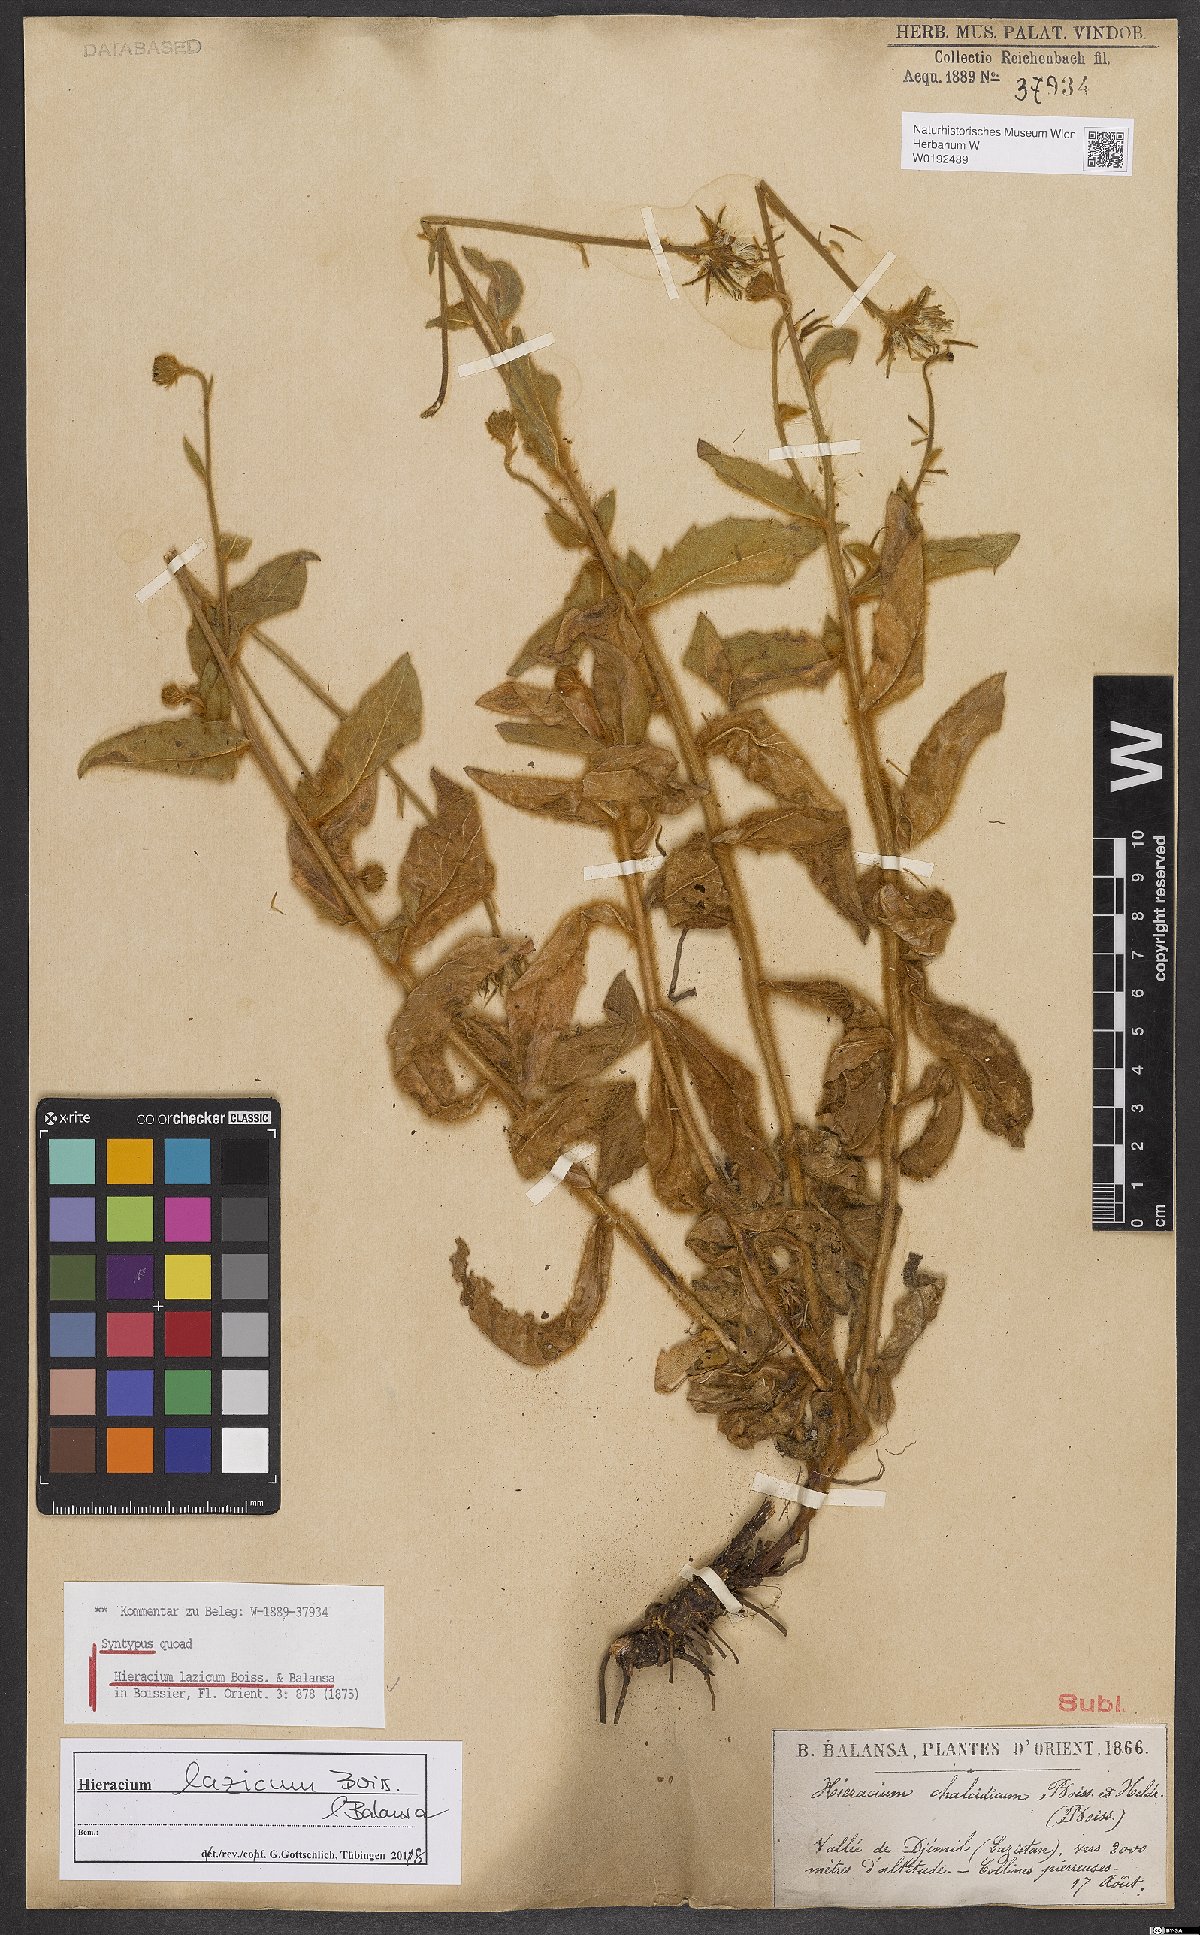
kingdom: Plantae
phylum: Tracheophyta
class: Magnoliopsida
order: Asterales
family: Asteraceae
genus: Hieracium
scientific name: Hieracium lazicum
